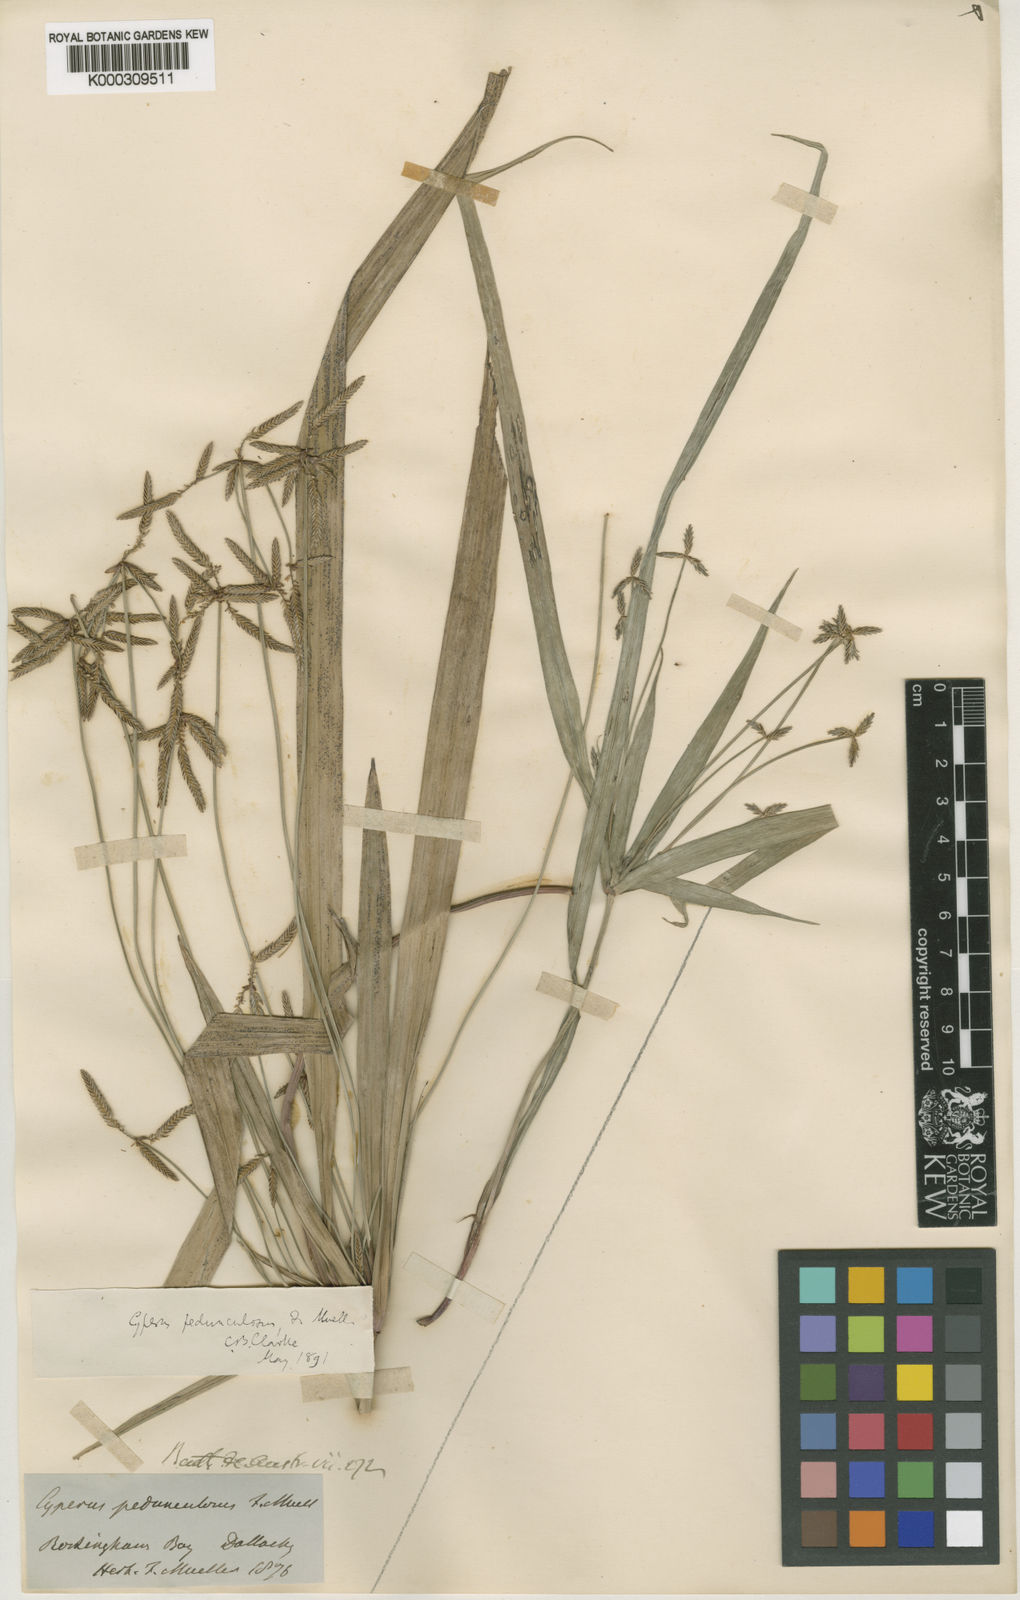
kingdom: Plantae
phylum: Tracheophyta
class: Liliopsida
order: Poales
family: Cyperaceae
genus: Cyperus
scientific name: Cyperus pedunculosus
